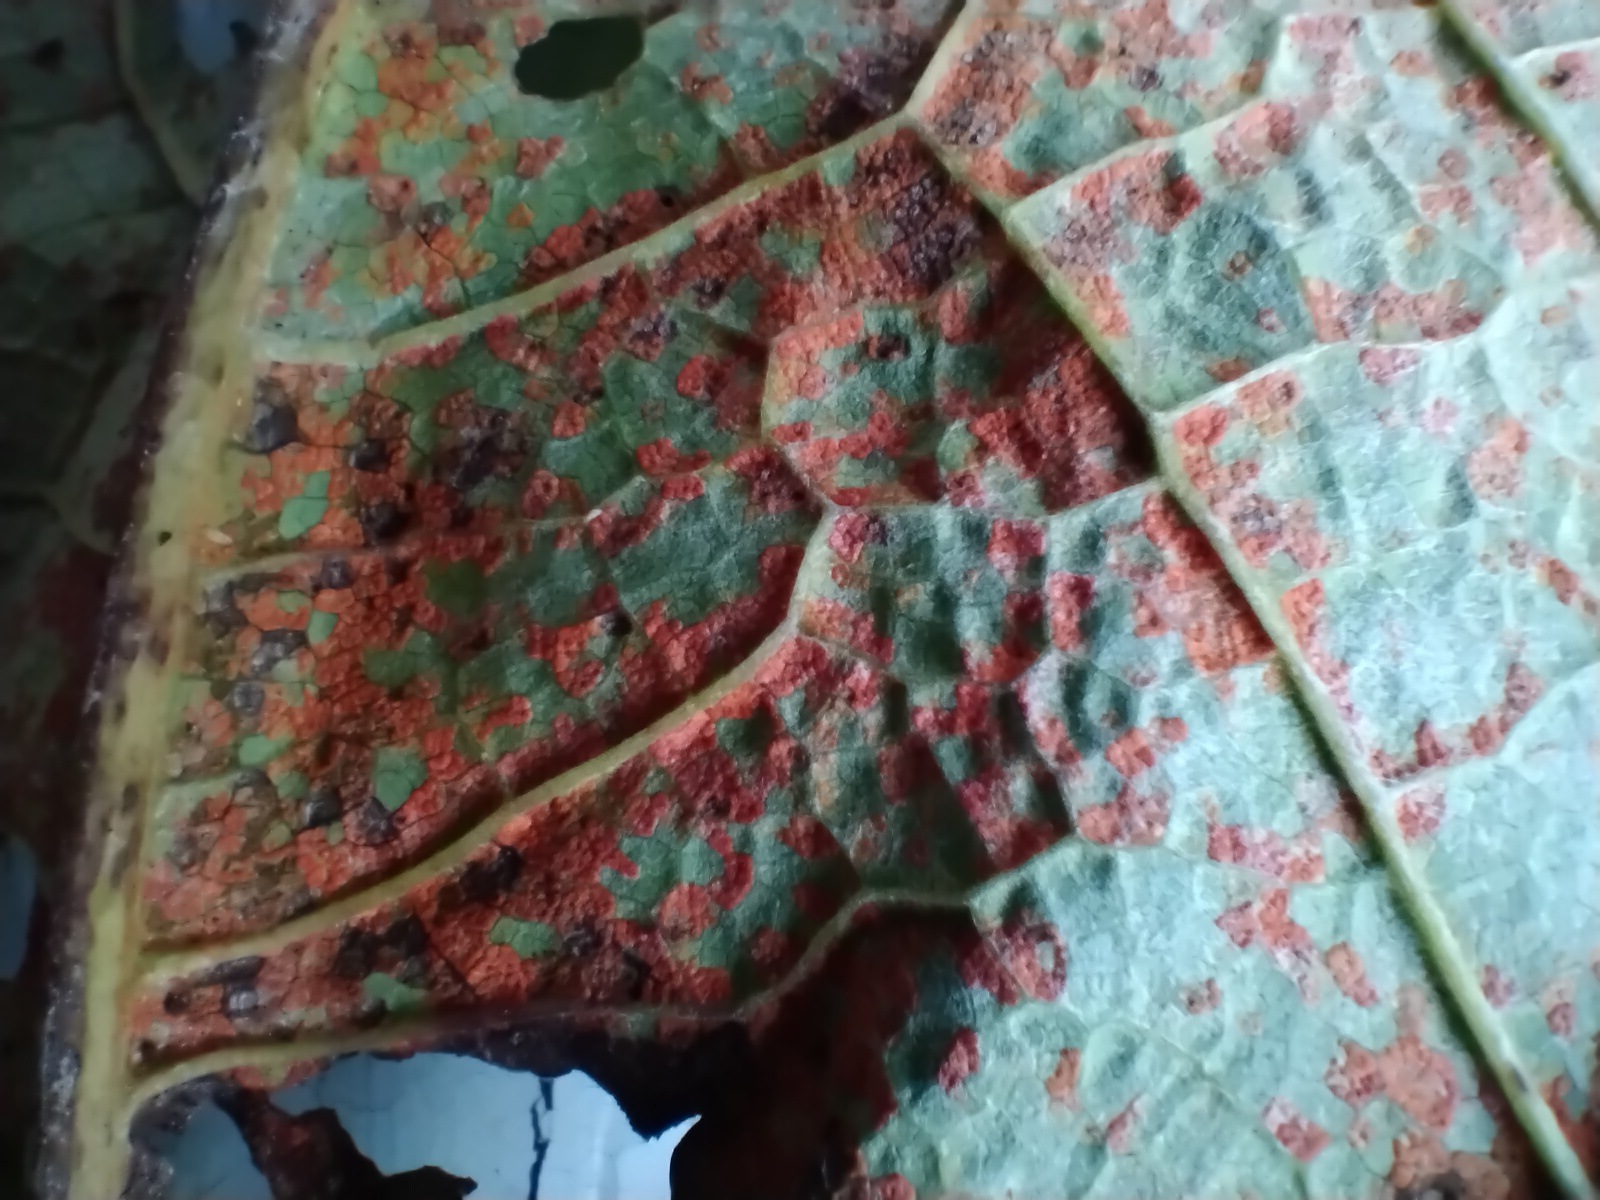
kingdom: Fungi
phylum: Basidiomycota
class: Pucciniomycetes
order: Pucciniales
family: Coleosporiaceae
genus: Coleosporium
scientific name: Coleosporium tussilaginis
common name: almindelig fyrrenålerust
